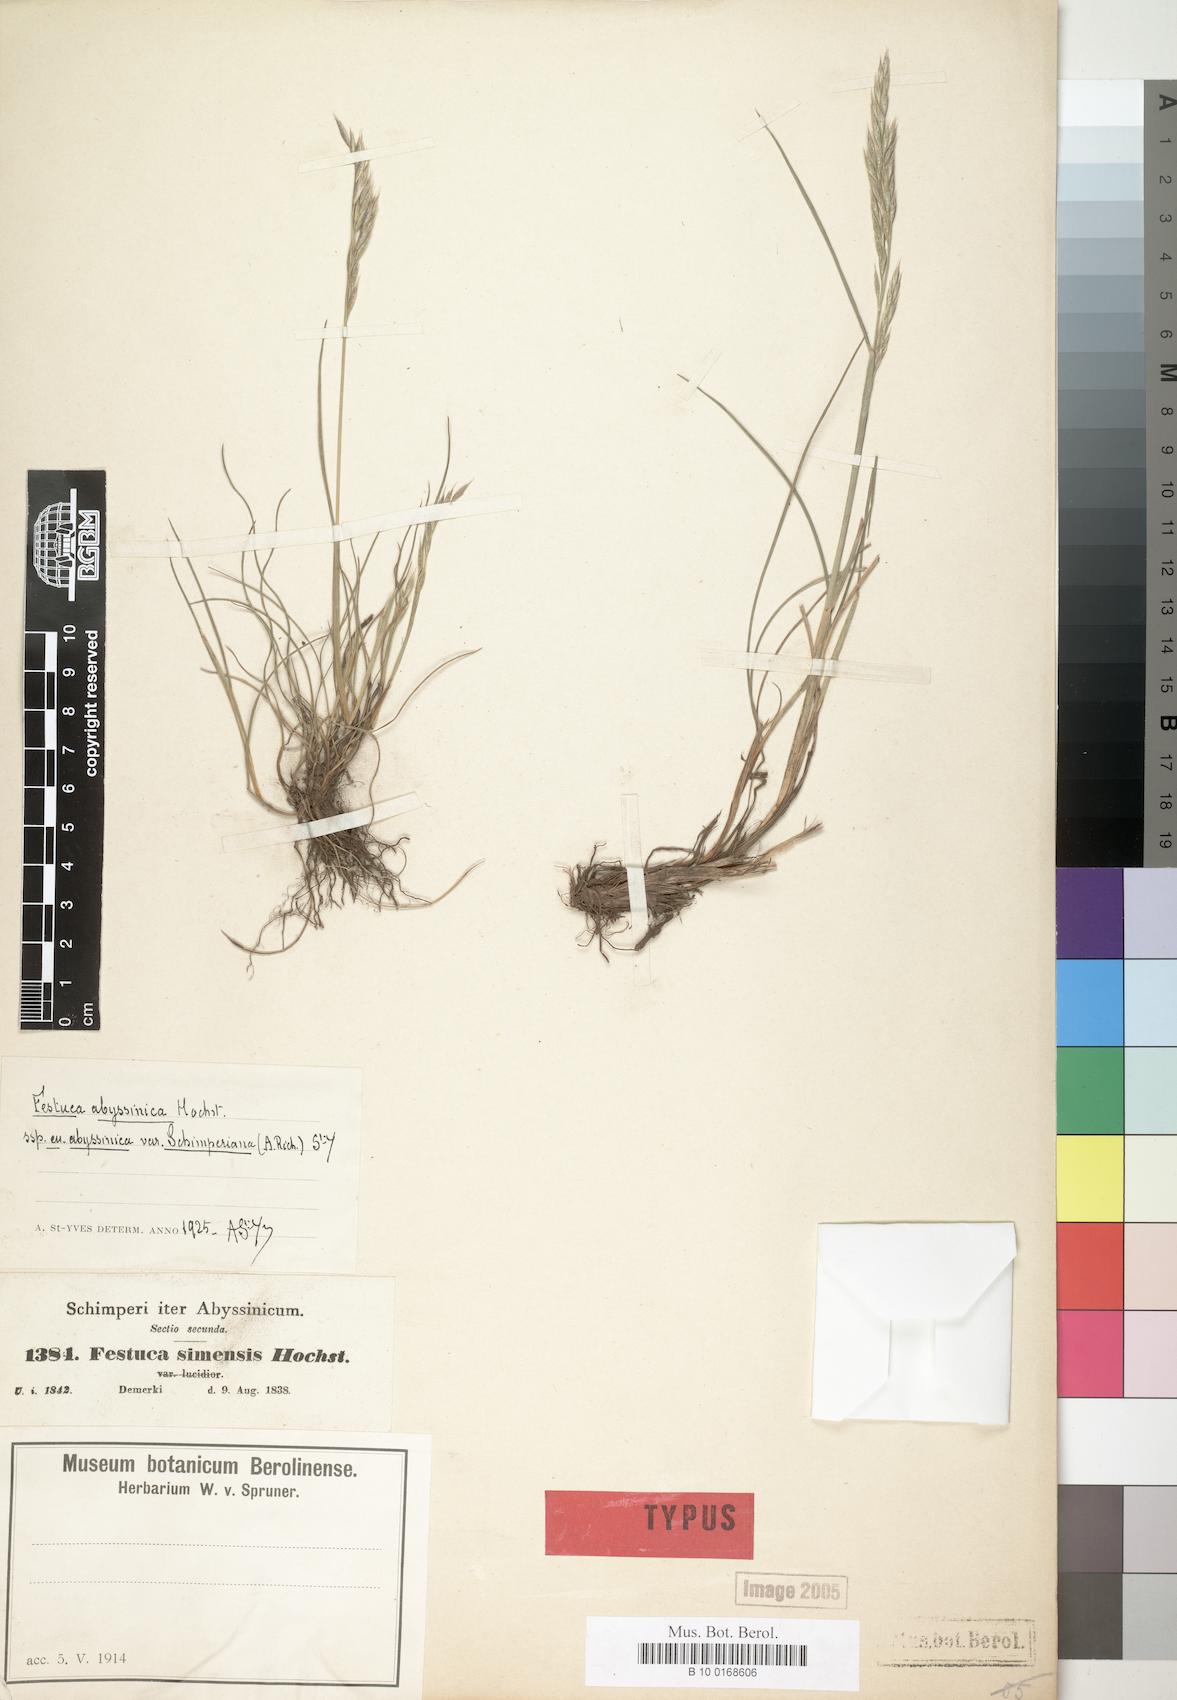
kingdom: Plantae
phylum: Tracheophyta
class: Liliopsida
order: Poales
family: Poaceae
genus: Festuca
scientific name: Festuca abyssinica
